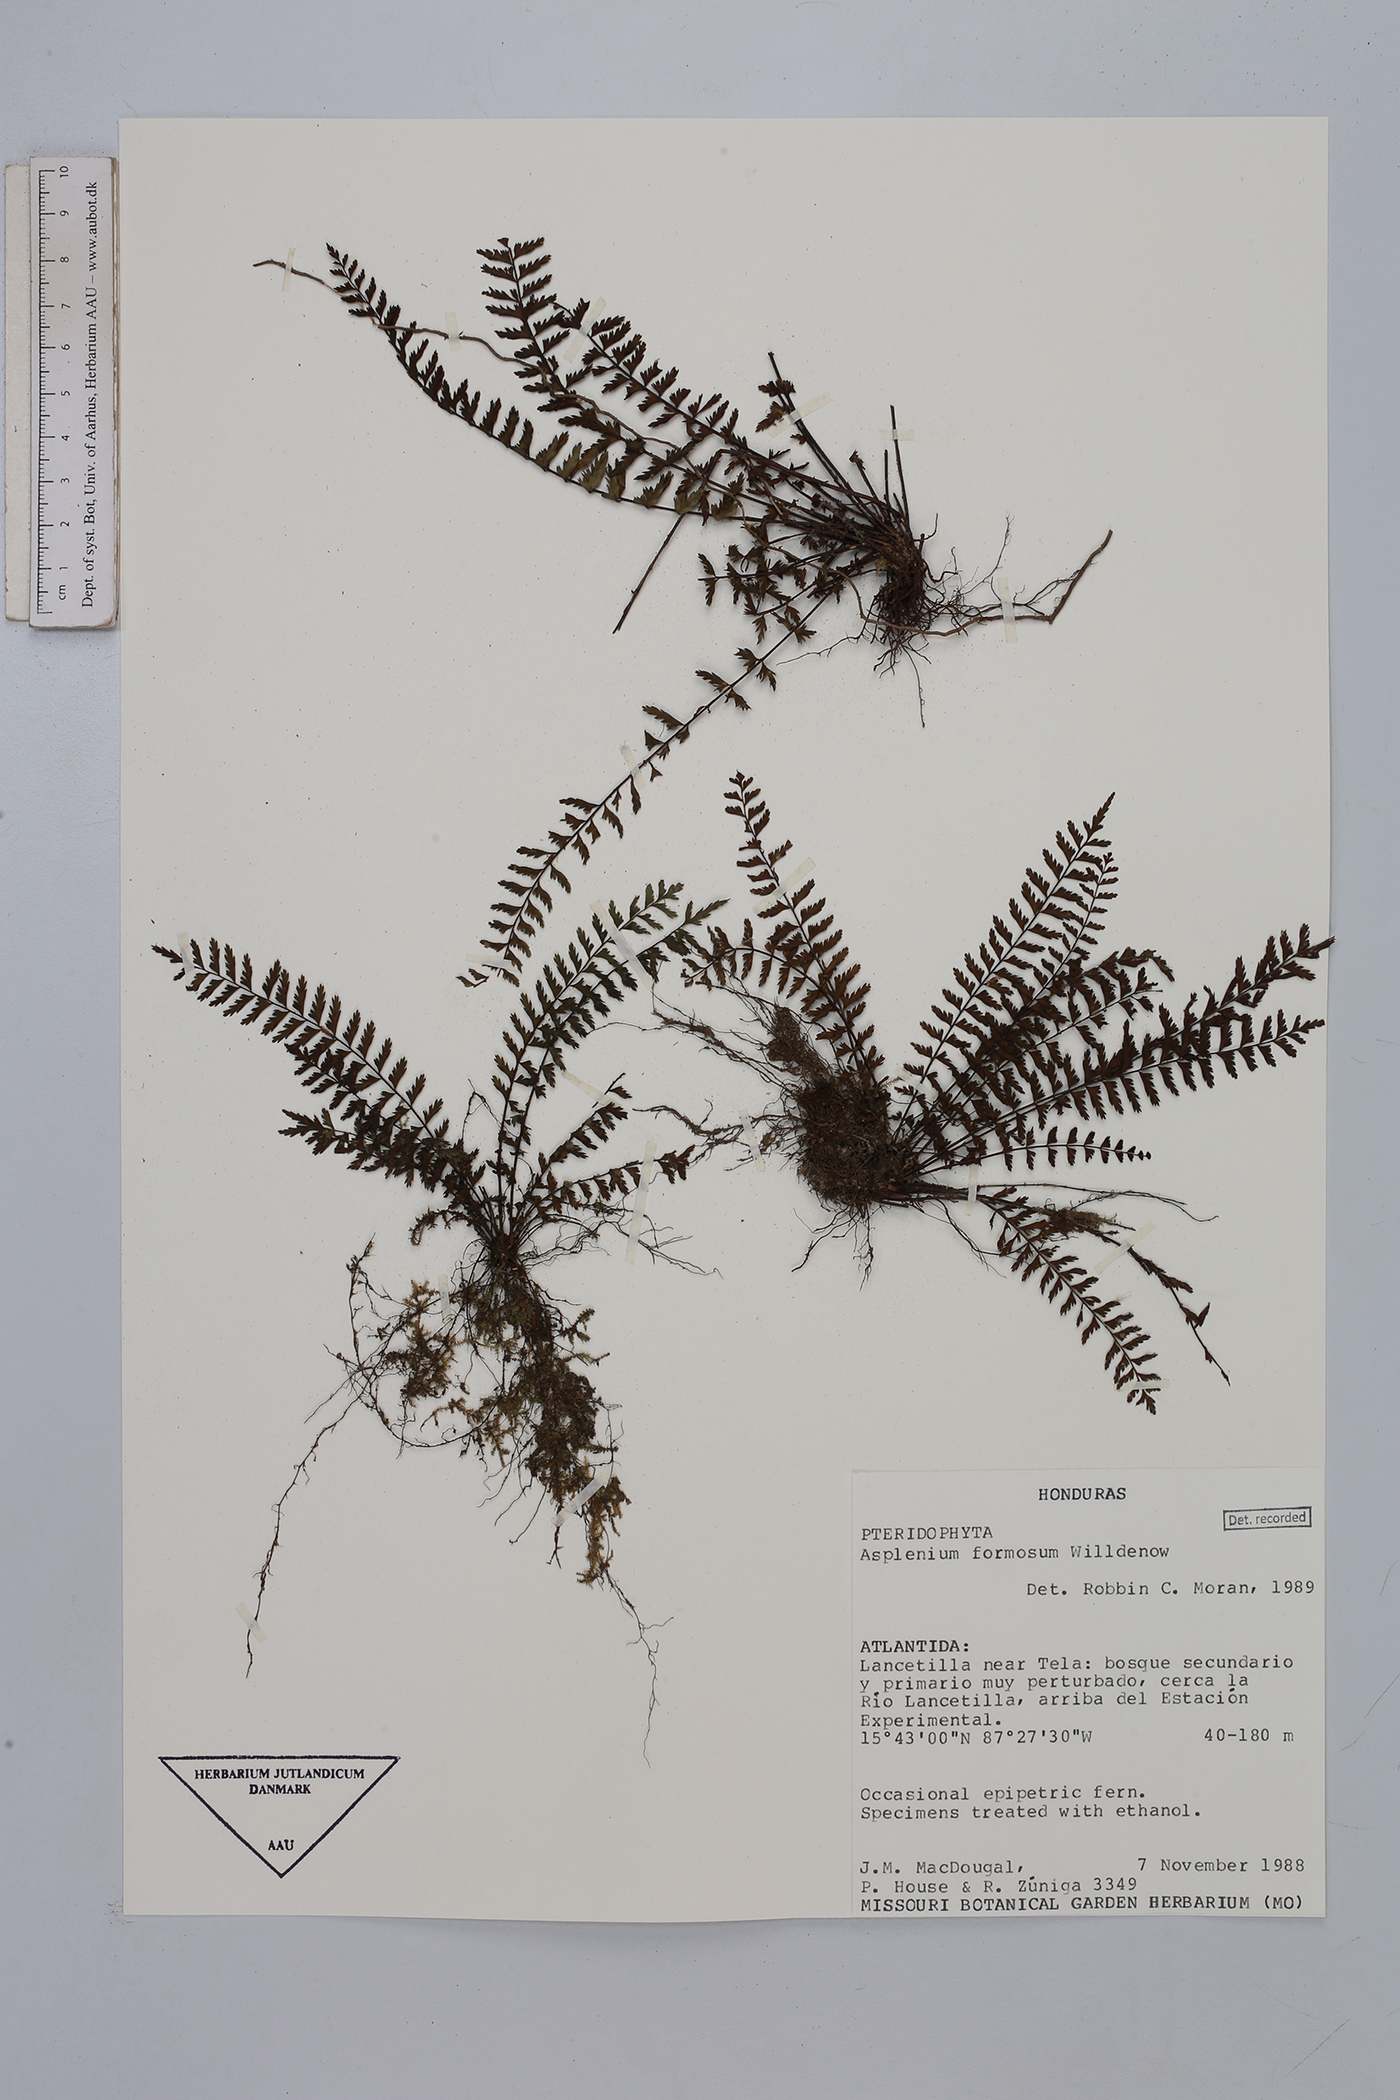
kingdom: Plantae
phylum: Tracheophyta
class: Polypodiopsida
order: Polypodiales
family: Aspleniaceae
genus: Asplenium
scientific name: Asplenium formosum
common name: Showy spleenwort
